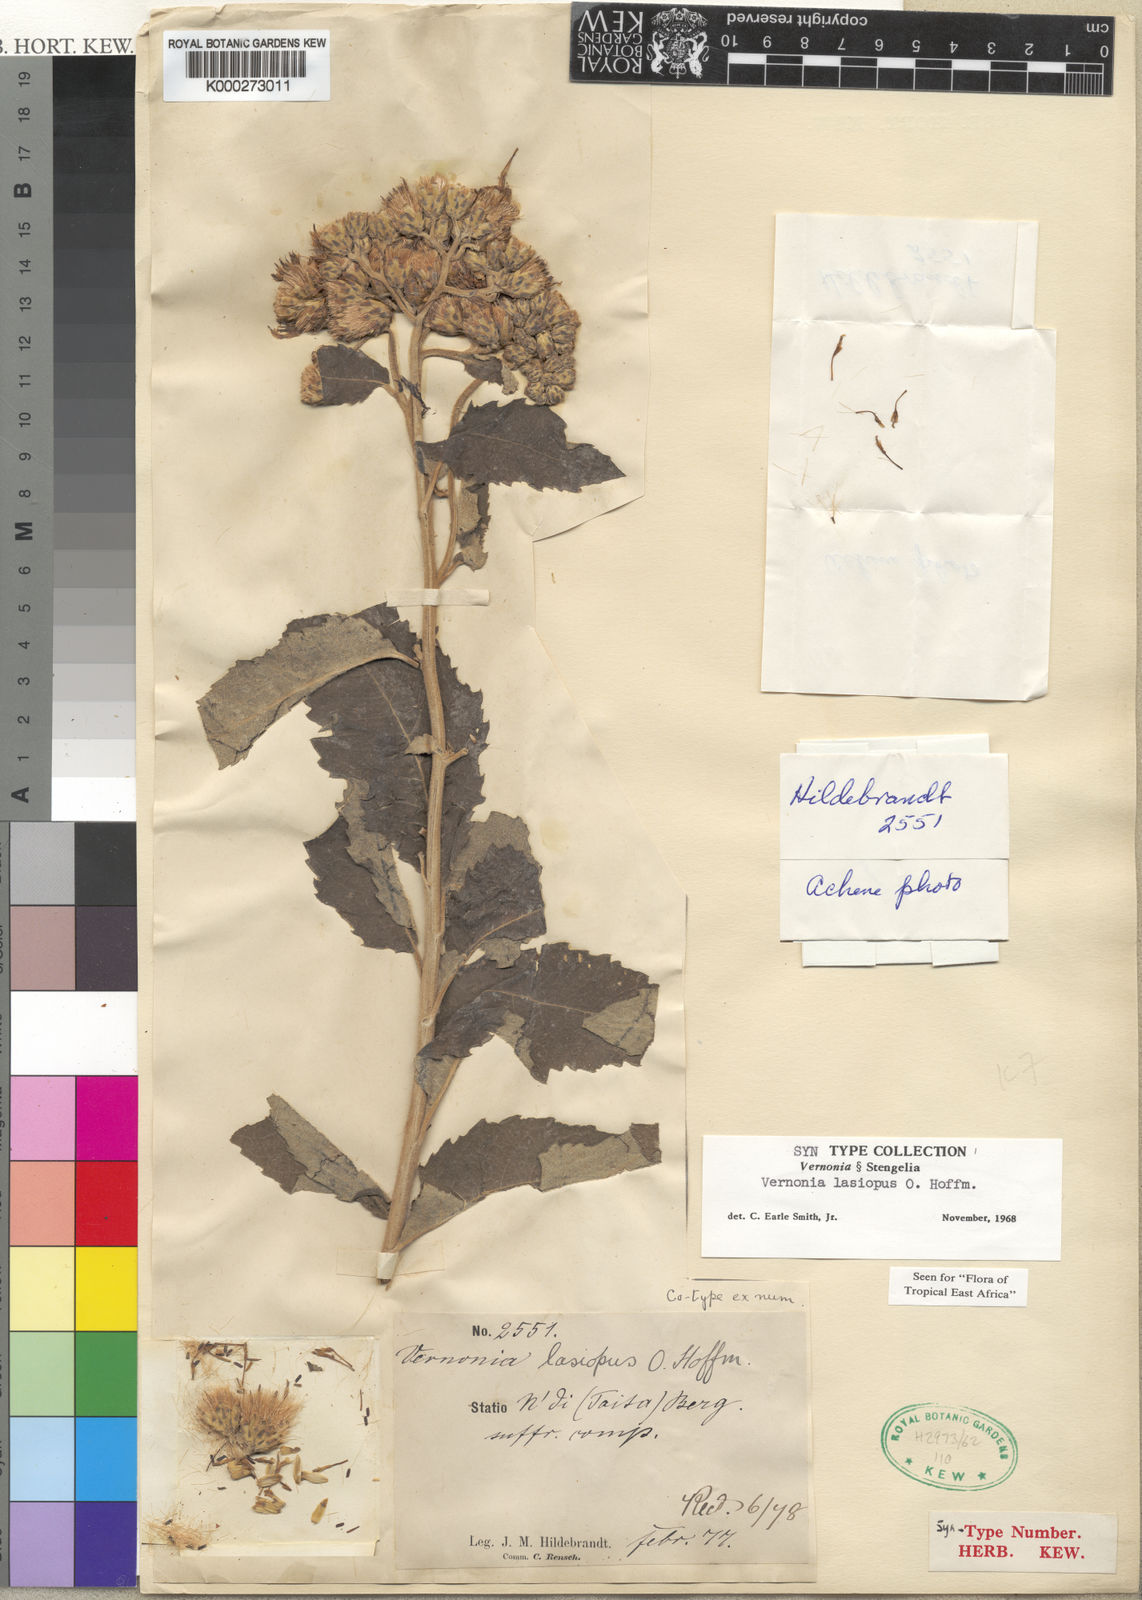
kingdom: Plantae
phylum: Tracheophyta
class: Magnoliopsida
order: Asterales
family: Asteraceae
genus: Baccharoides
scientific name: Baccharoides lasiopus
